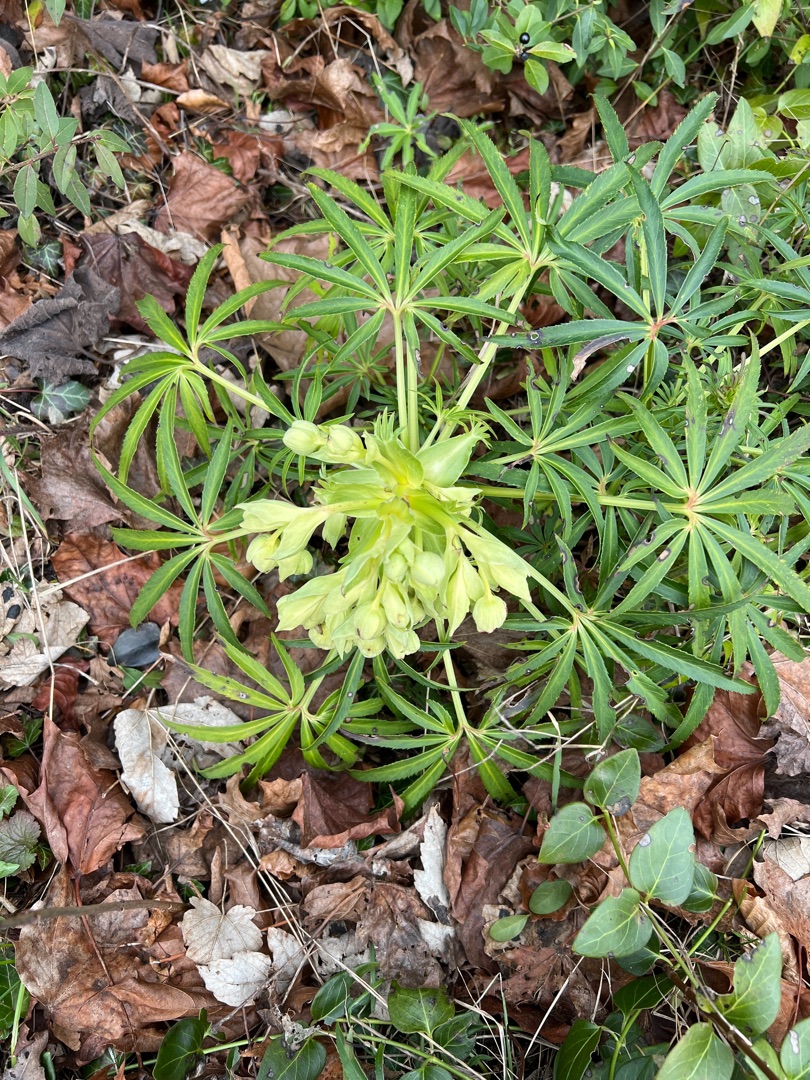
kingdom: Plantae
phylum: Tracheophyta
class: Magnoliopsida
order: Ranunculales
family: Ranunculaceae
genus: Helleborus
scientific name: Helleborus foetidus
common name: Stinkende julerose
